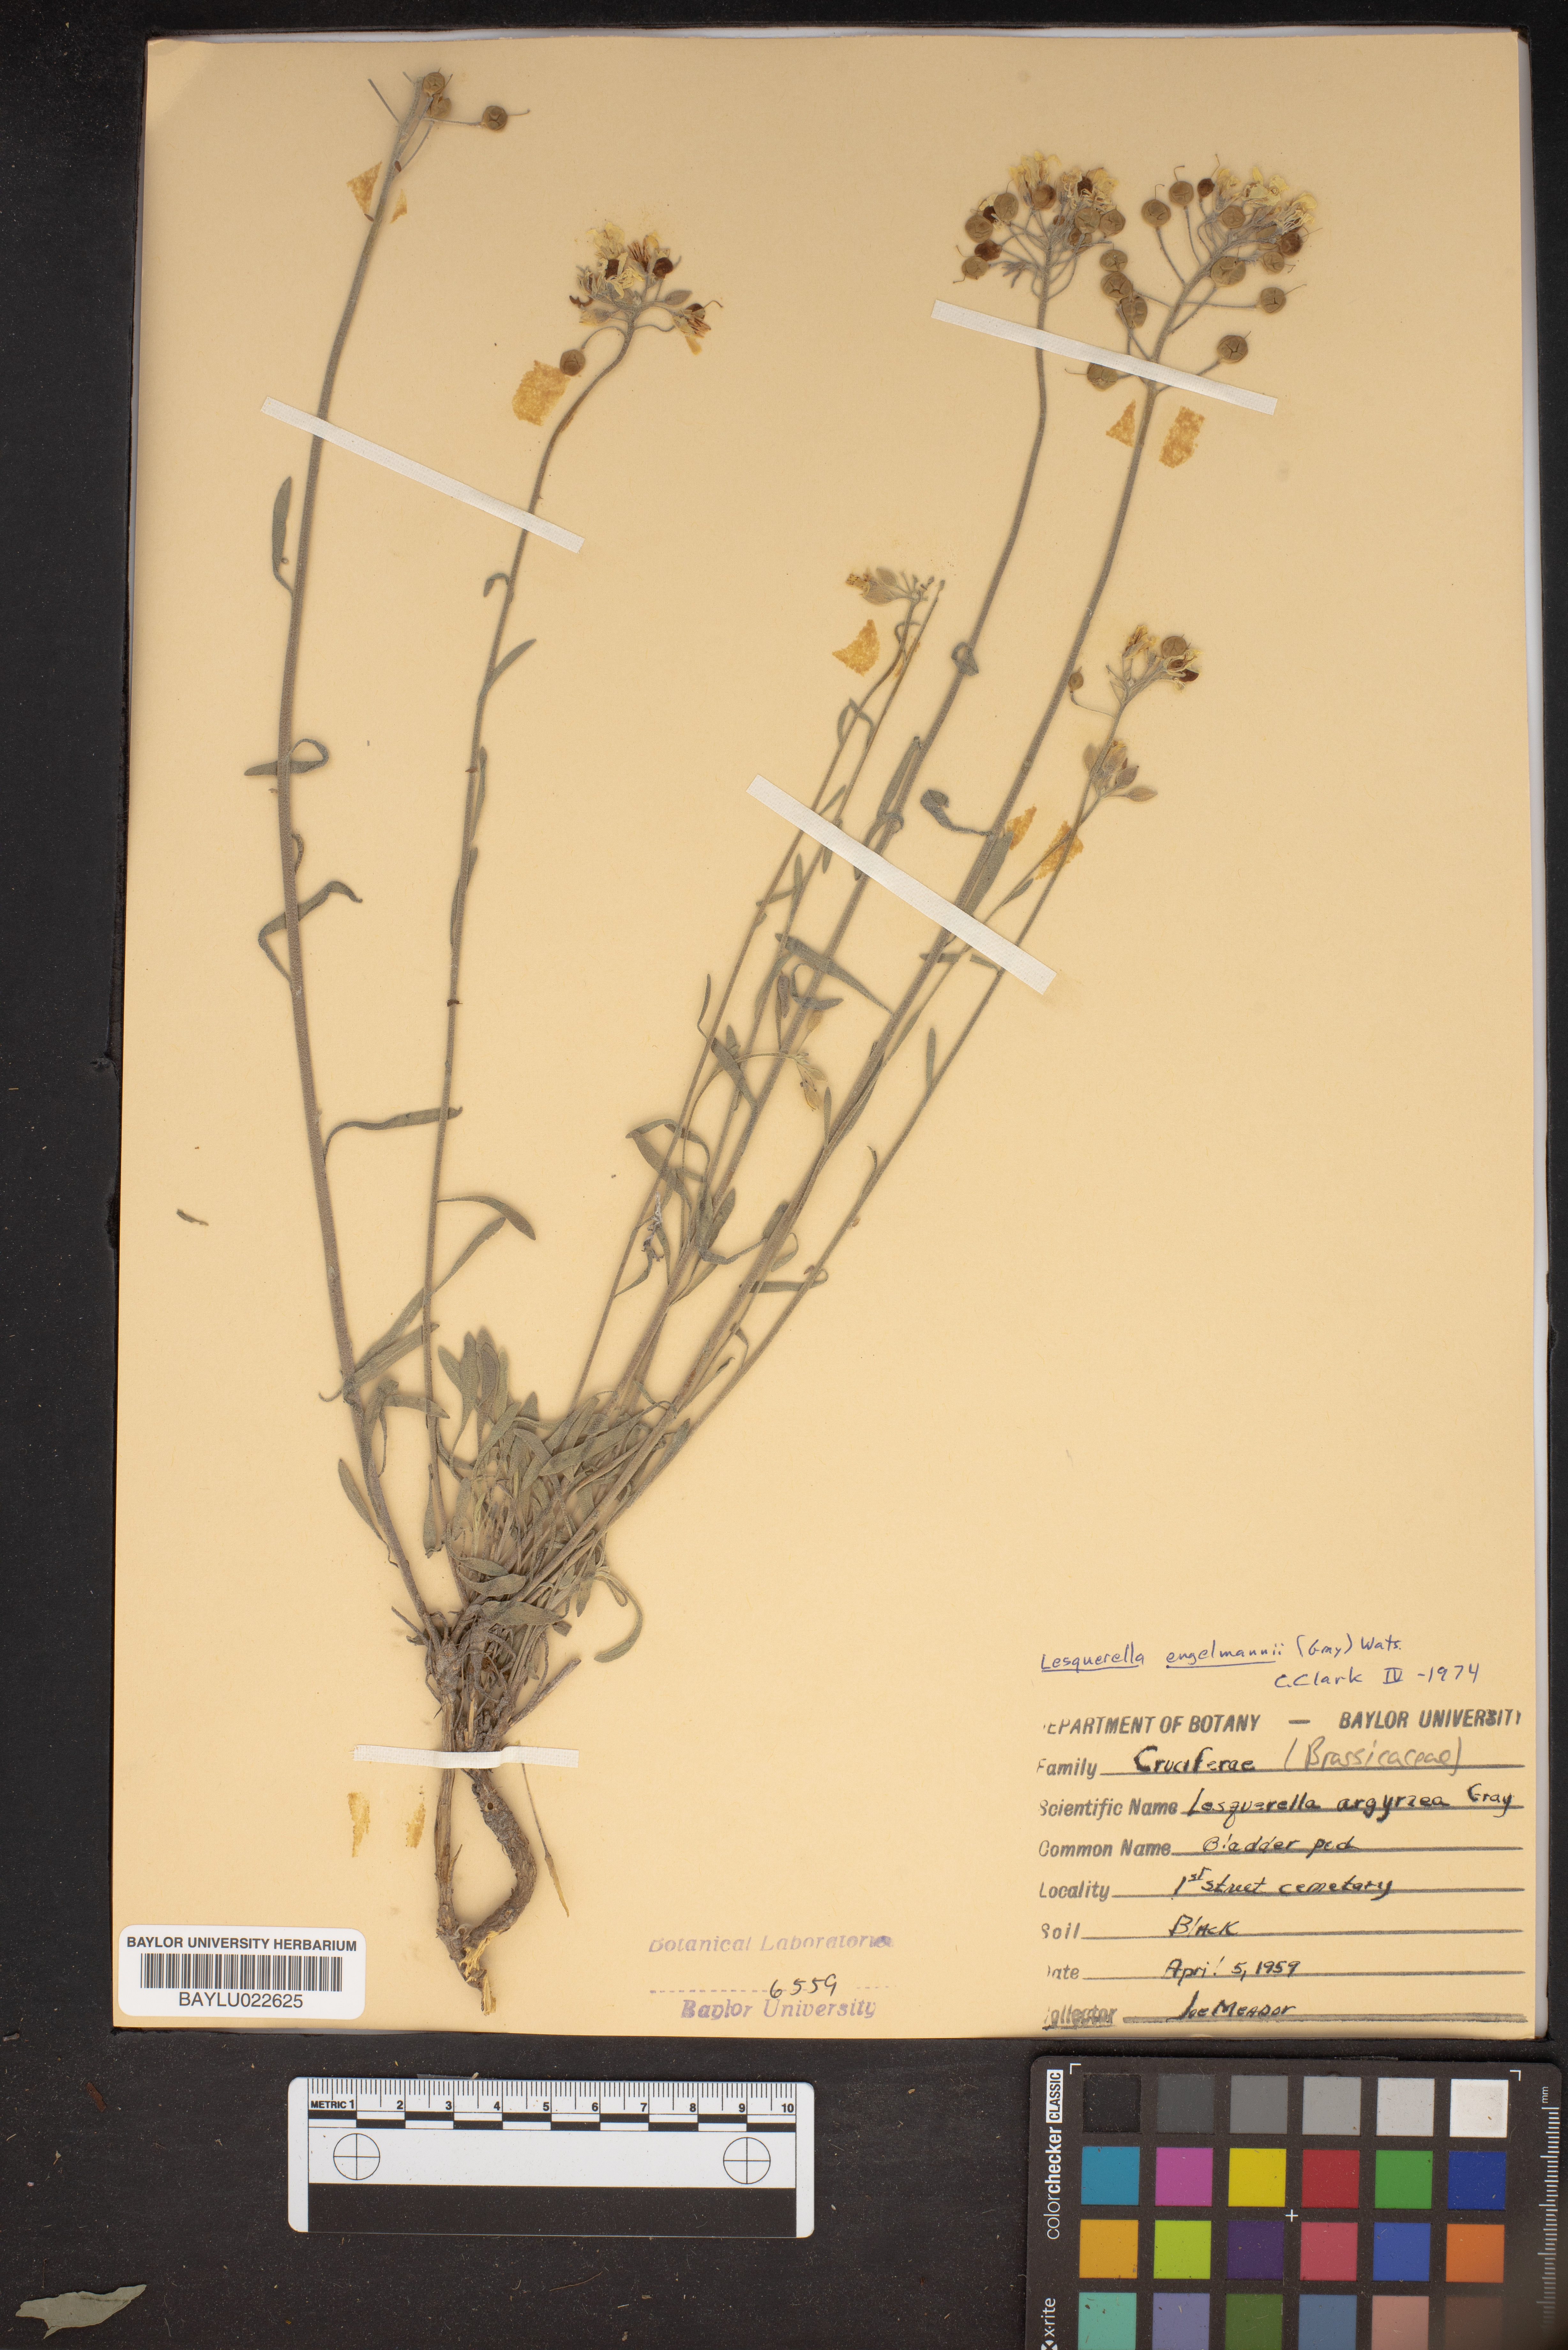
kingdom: Plantae
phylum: Tracheophyta
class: Magnoliopsida
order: Brassicales
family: Brassicaceae
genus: Physaria
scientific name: Physaria argyraea
